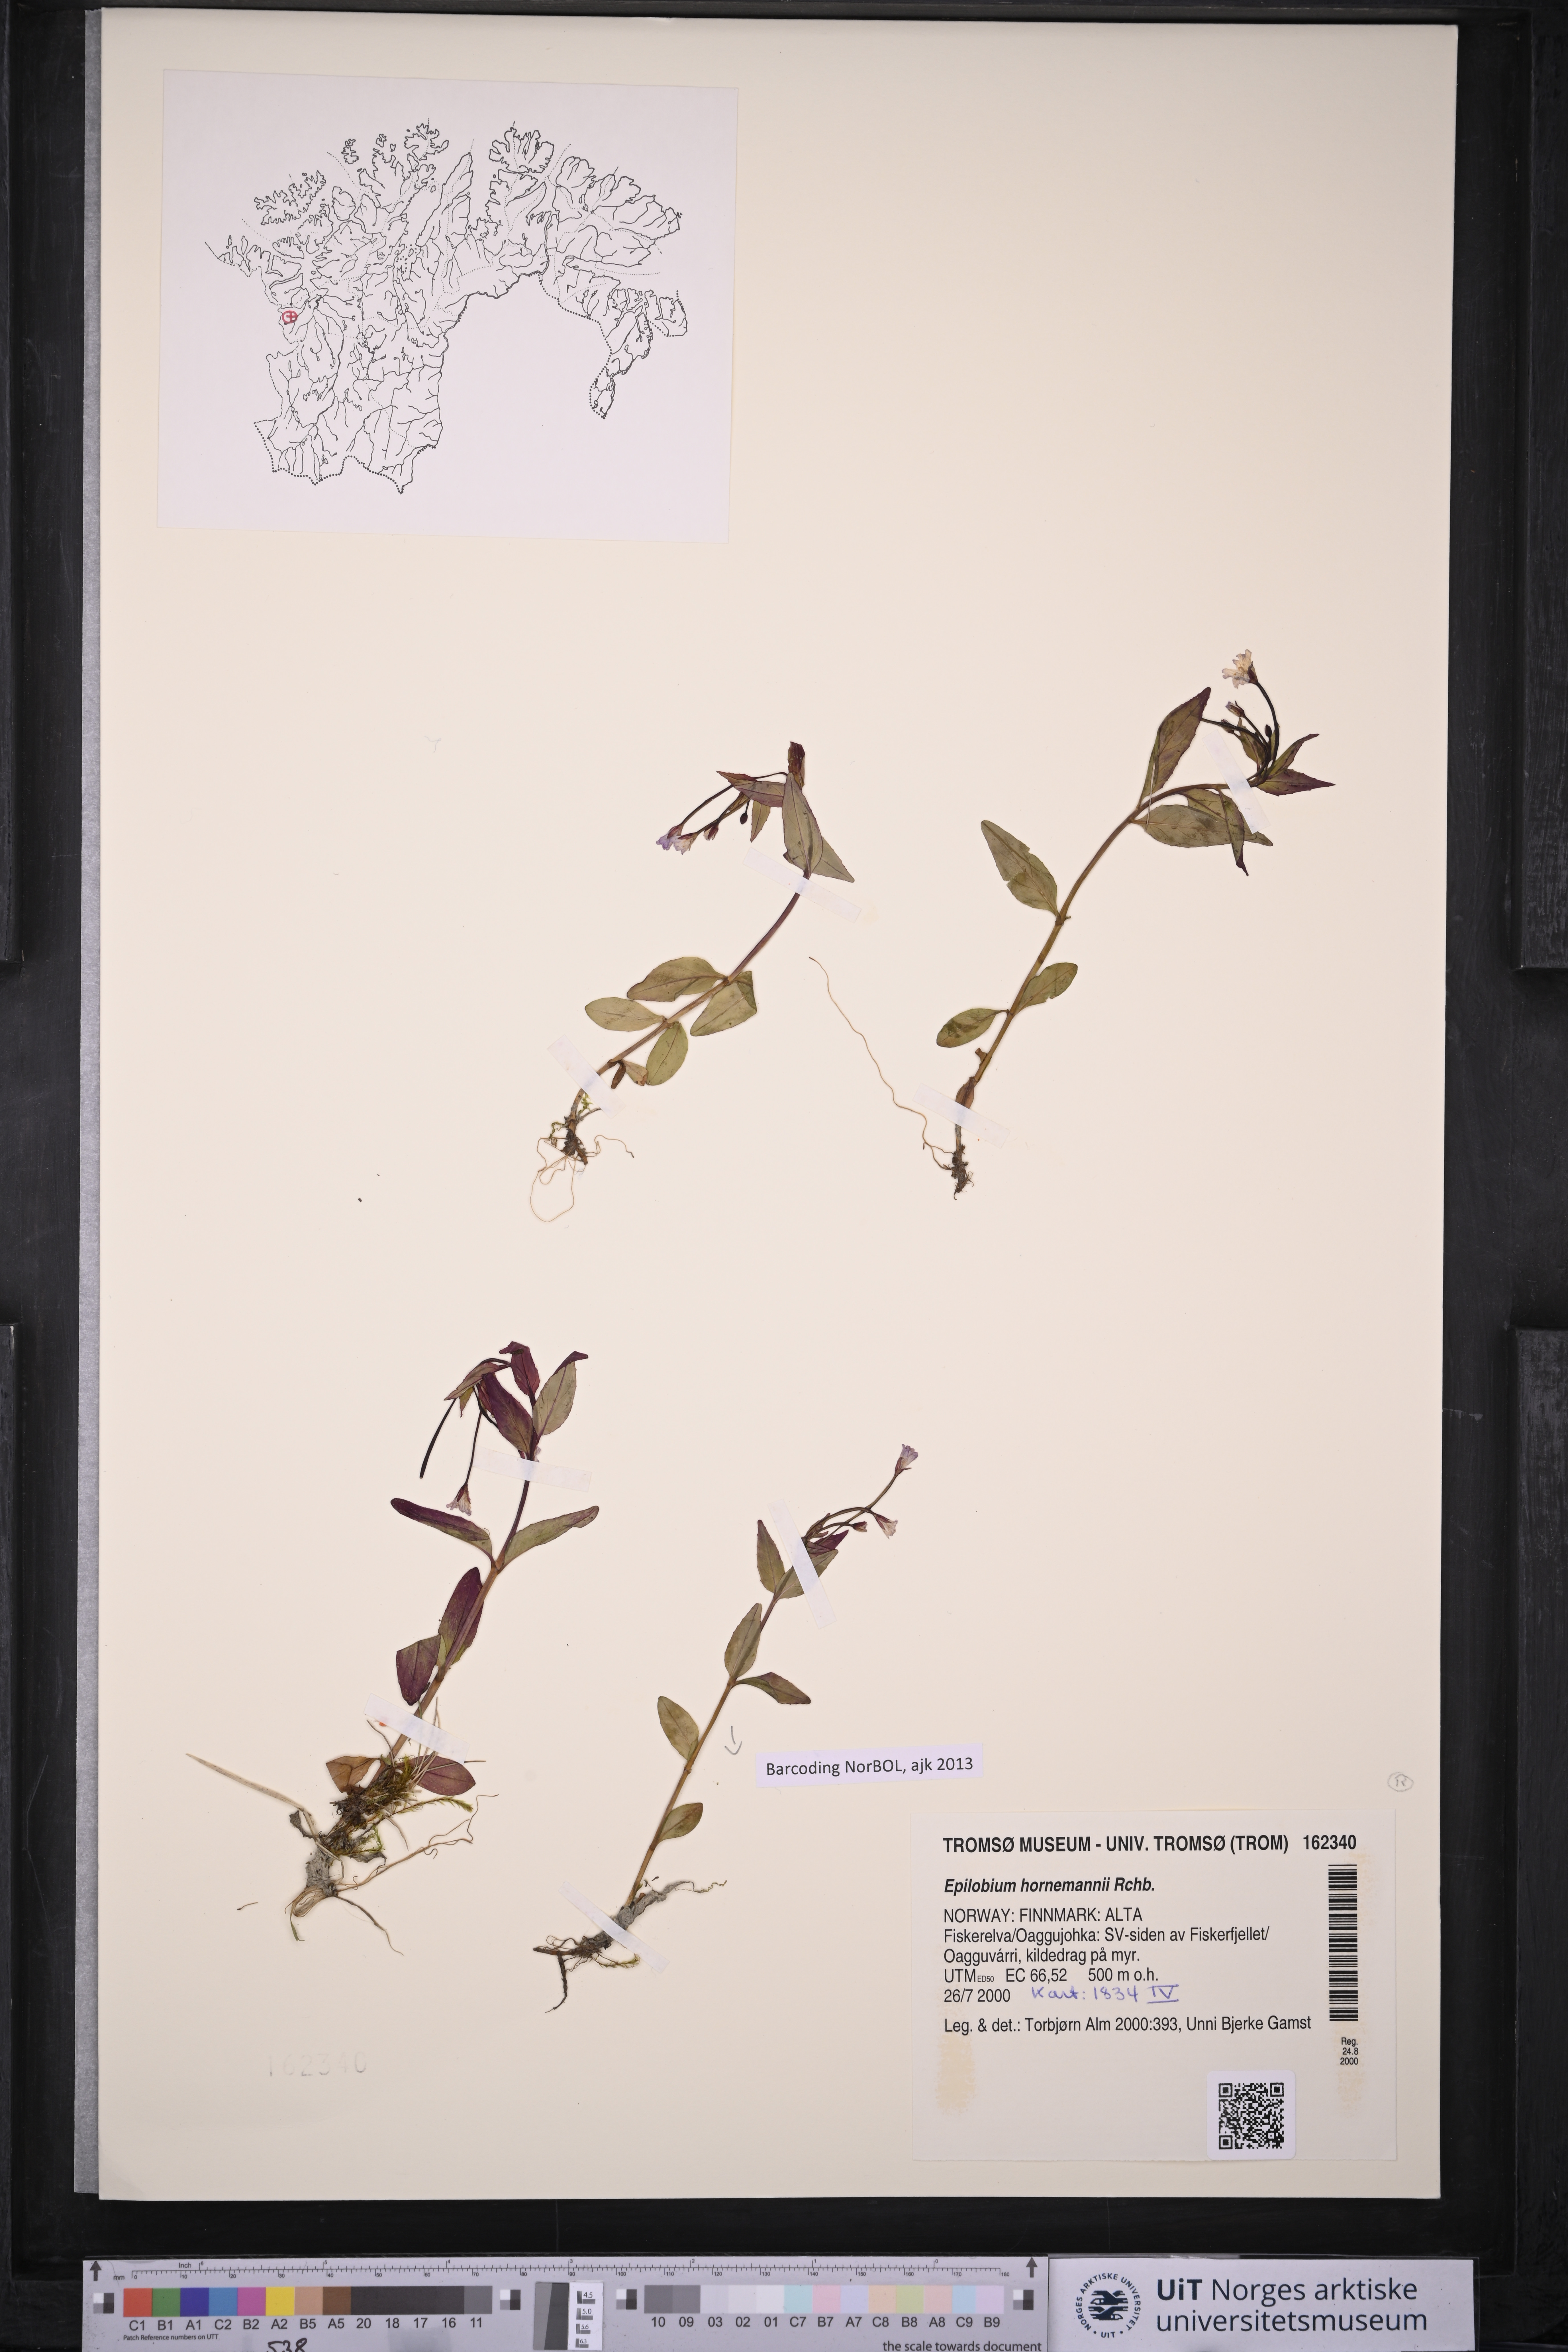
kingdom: Plantae
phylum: Tracheophyta
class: Magnoliopsida
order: Myrtales
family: Onagraceae
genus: Epilobium
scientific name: Epilobium hornemannii
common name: Hornemann's willowherb
